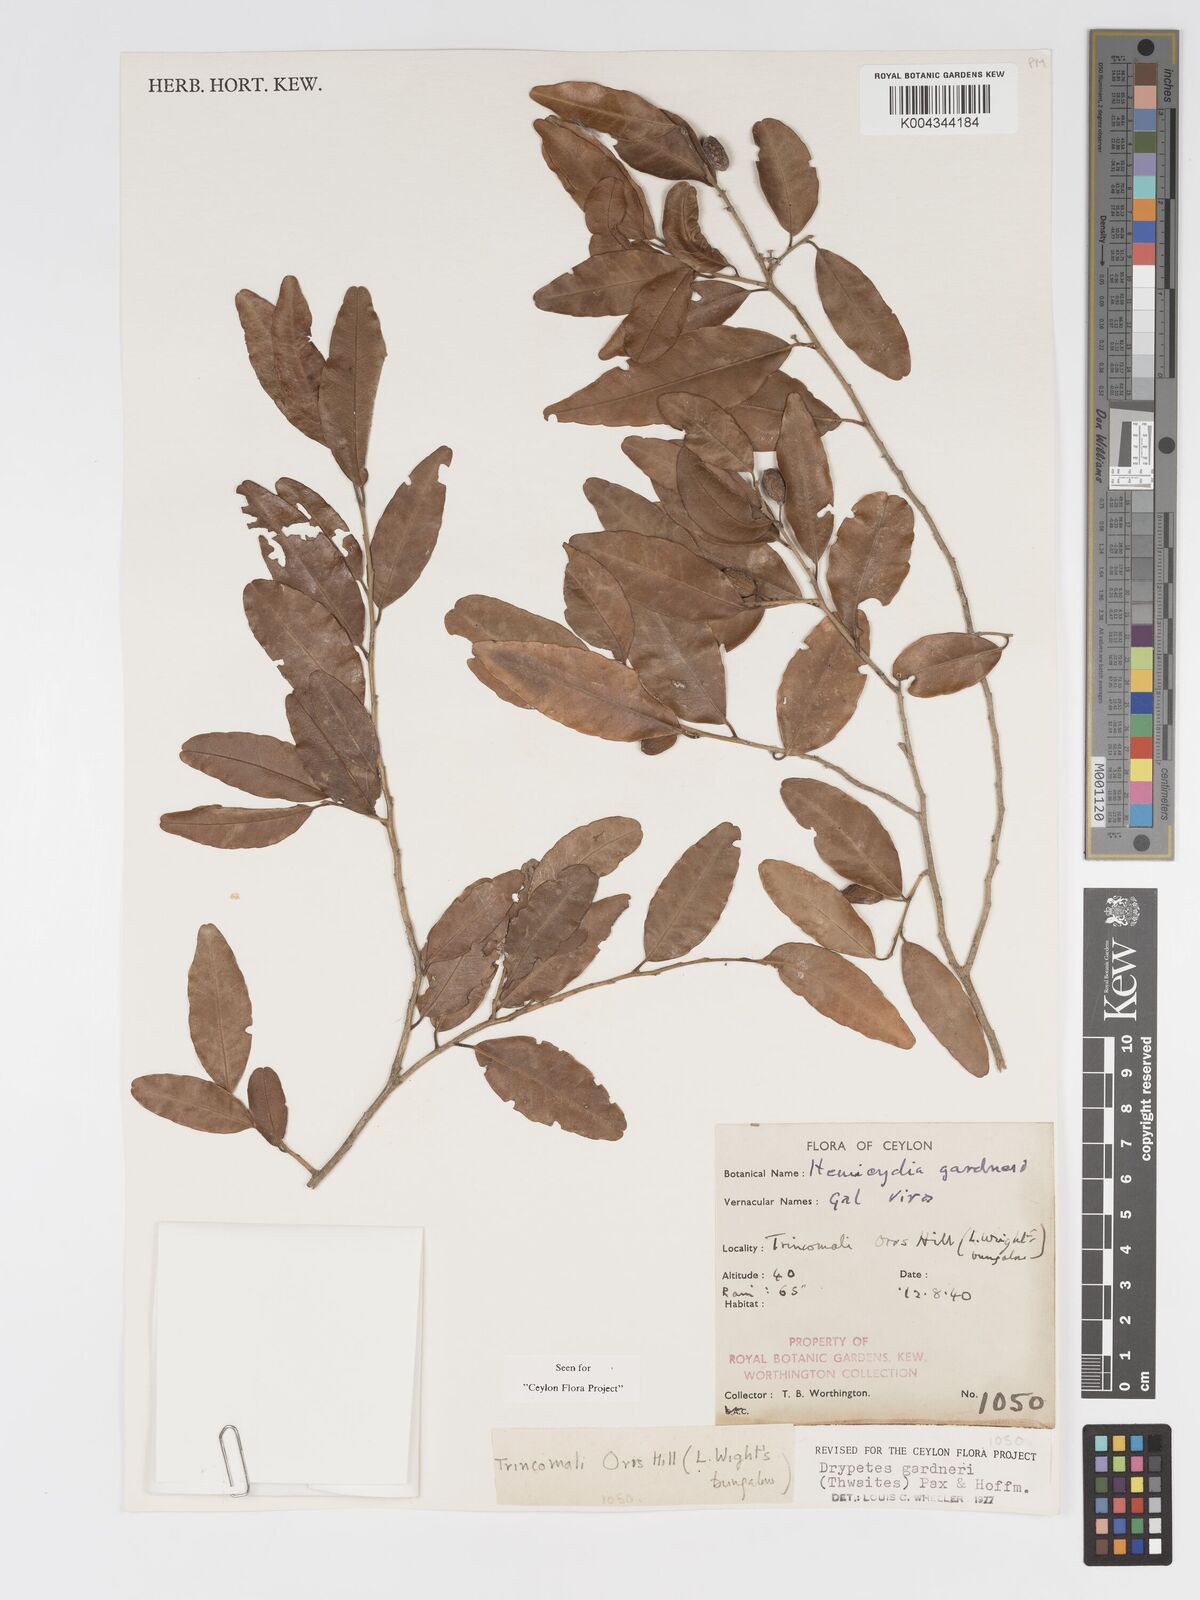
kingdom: Plantae
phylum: Tracheophyta
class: Magnoliopsida
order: Malpighiales
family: Putranjivaceae
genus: Drypetes
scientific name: Drypetes gardneri
